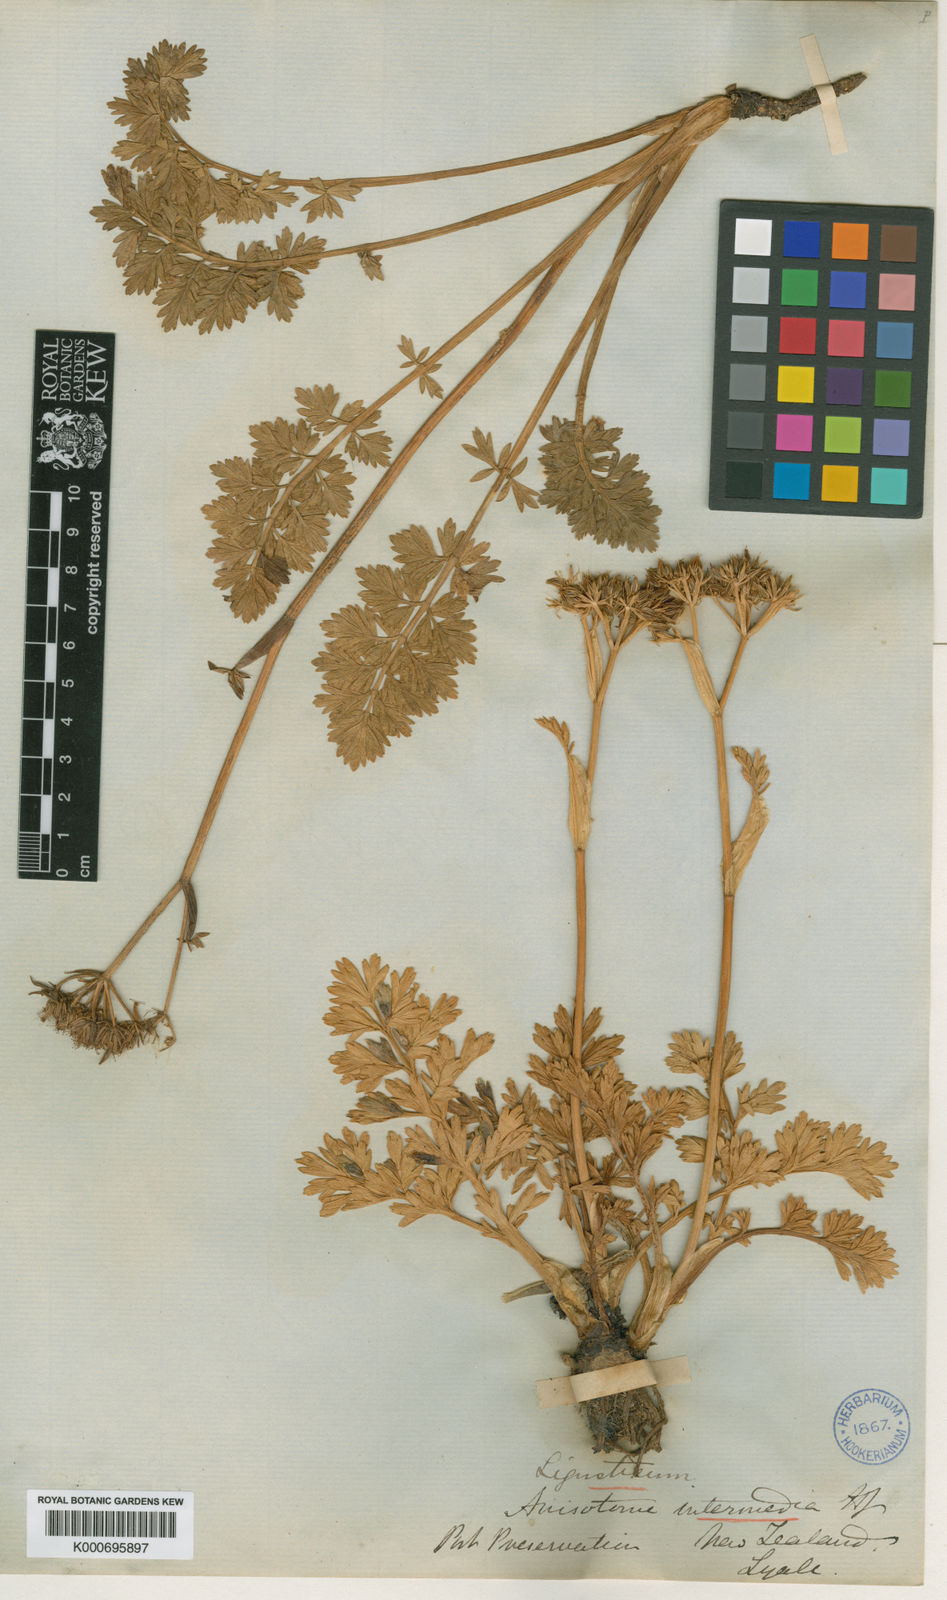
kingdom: Plantae
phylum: Tracheophyta
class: Magnoliopsida
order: Apiales
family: Apiaceae
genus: Anisotome
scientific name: Anisotome lyallii
